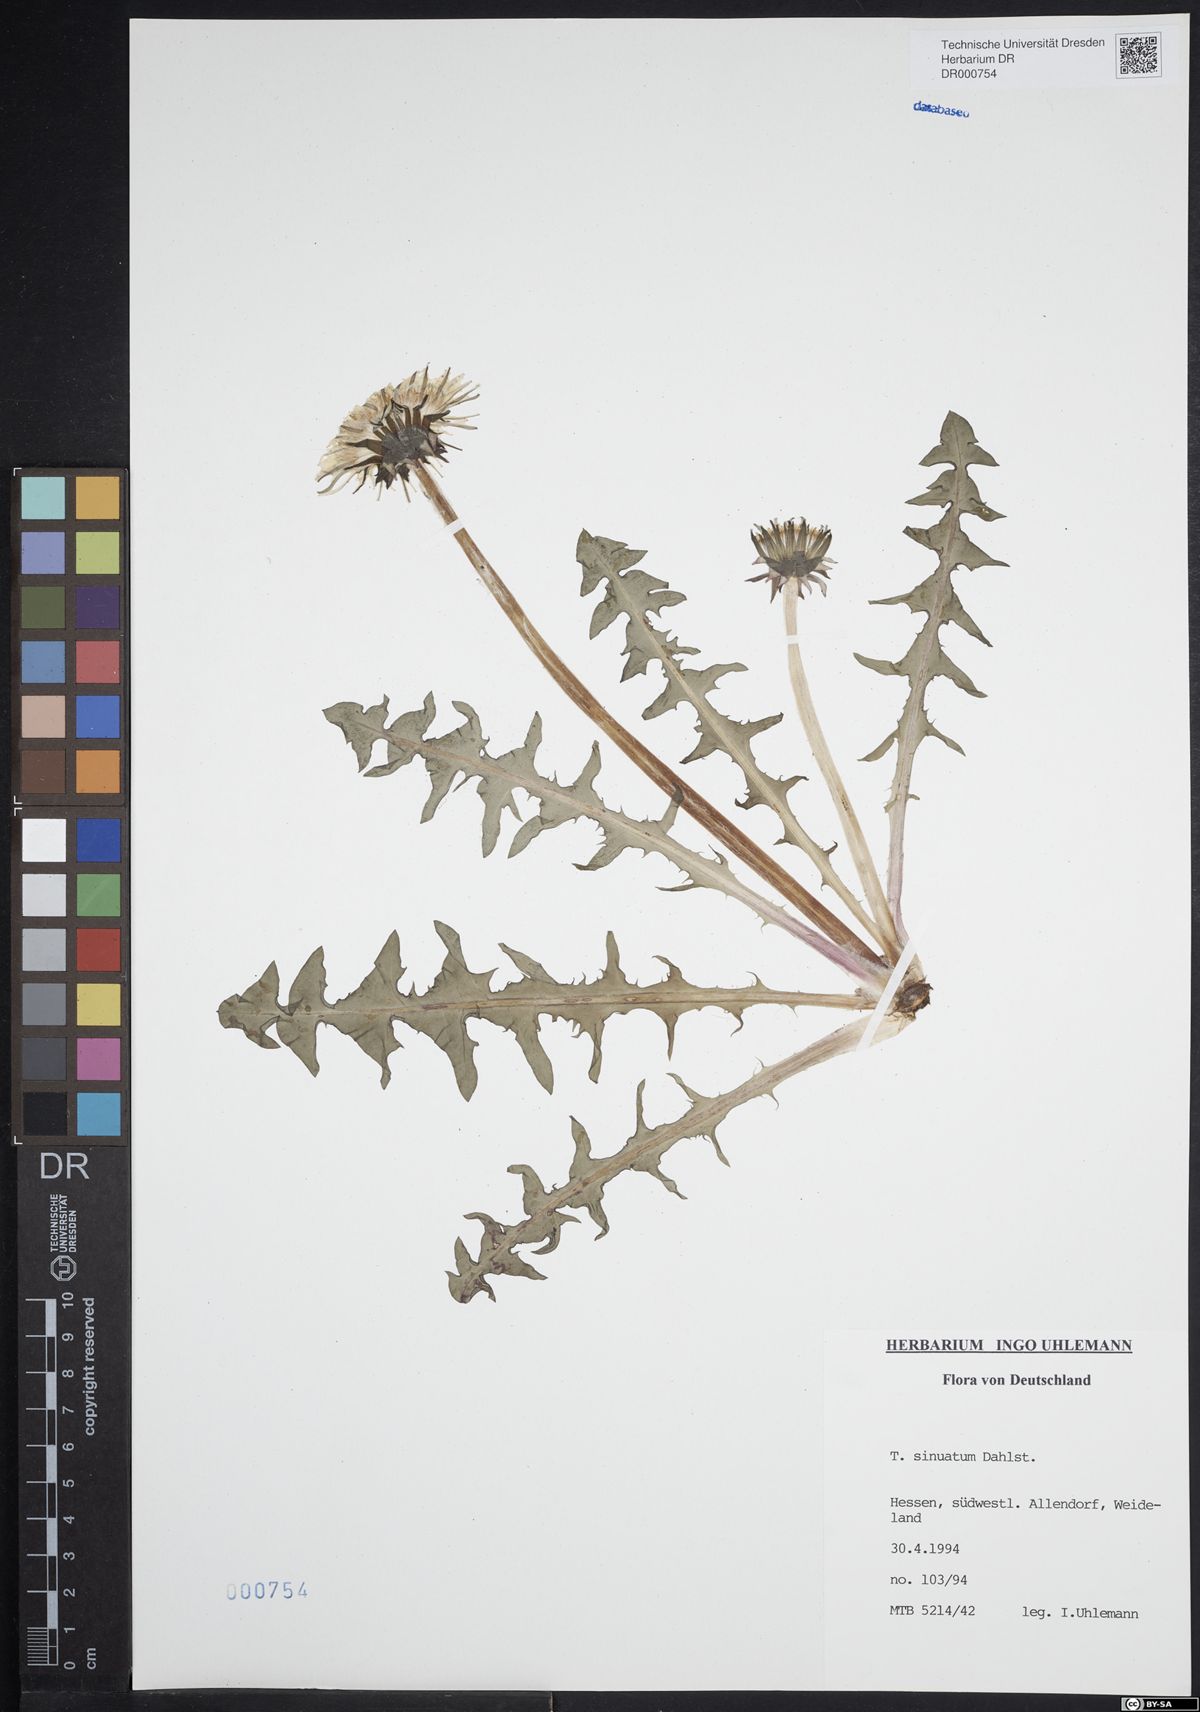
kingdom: Plantae
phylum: Tracheophyta
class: Magnoliopsida
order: Asterales
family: Asteraceae
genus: Taraxacum
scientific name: Taraxacum sinuatum
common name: Sinuate-lobed dandelion
